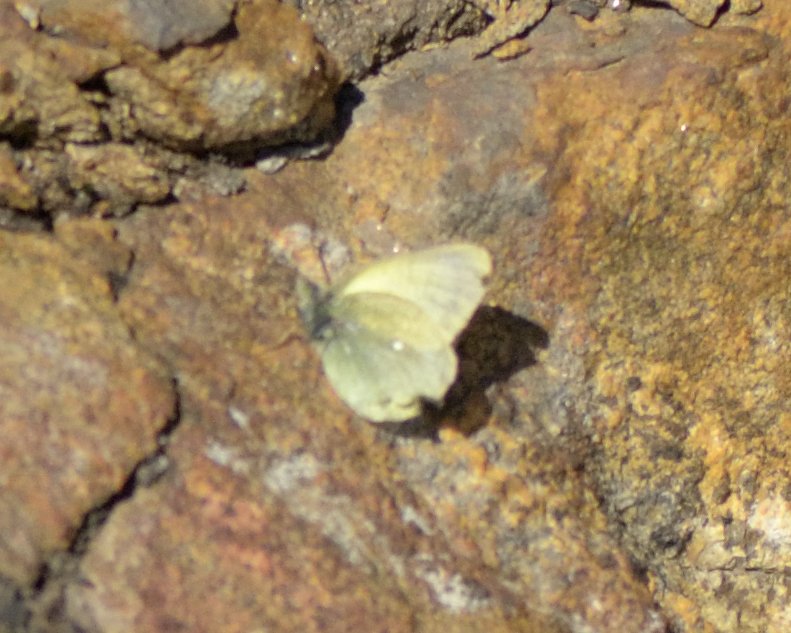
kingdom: Animalia
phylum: Arthropoda
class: Insecta
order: Lepidoptera
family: Pieridae
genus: Colias
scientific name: Colias palaeno
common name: Chippewa Sulphur
